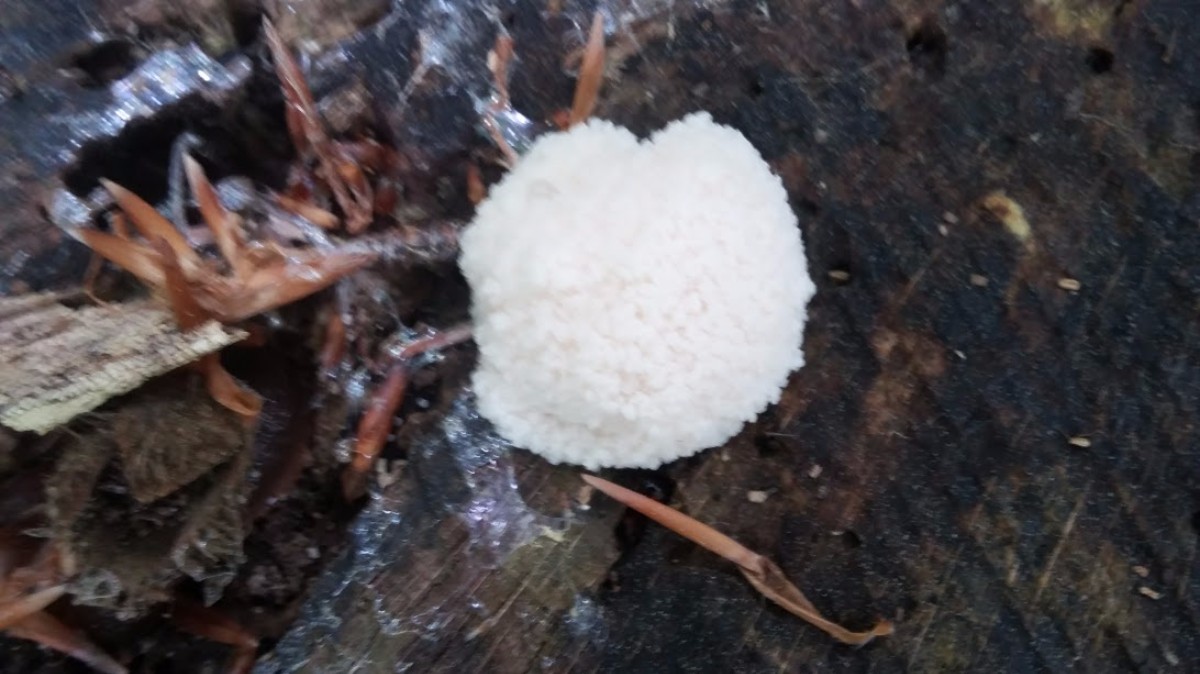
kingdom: Protozoa
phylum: Mycetozoa
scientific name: Mycetozoa
